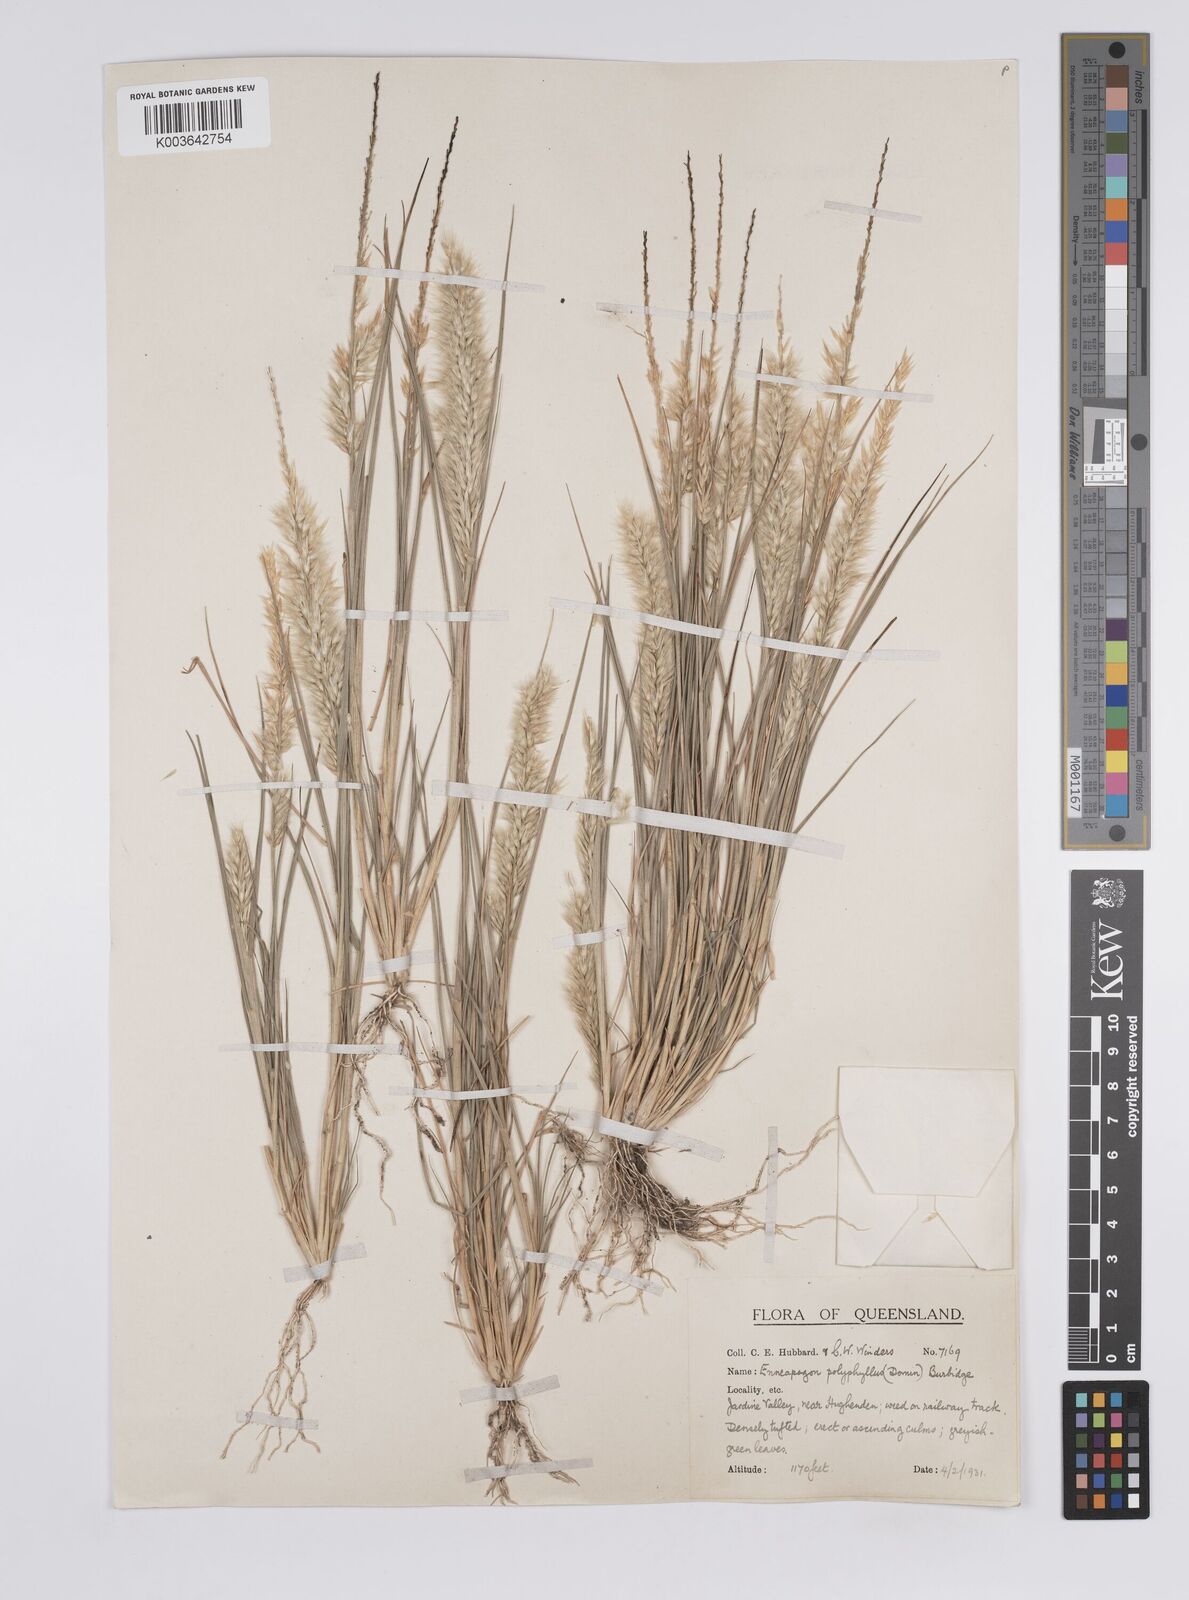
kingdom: Plantae
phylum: Tracheophyta
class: Liliopsida
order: Poales
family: Poaceae
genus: Enneapogon
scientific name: Enneapogon polyphyllus
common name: Leafy nineawn
